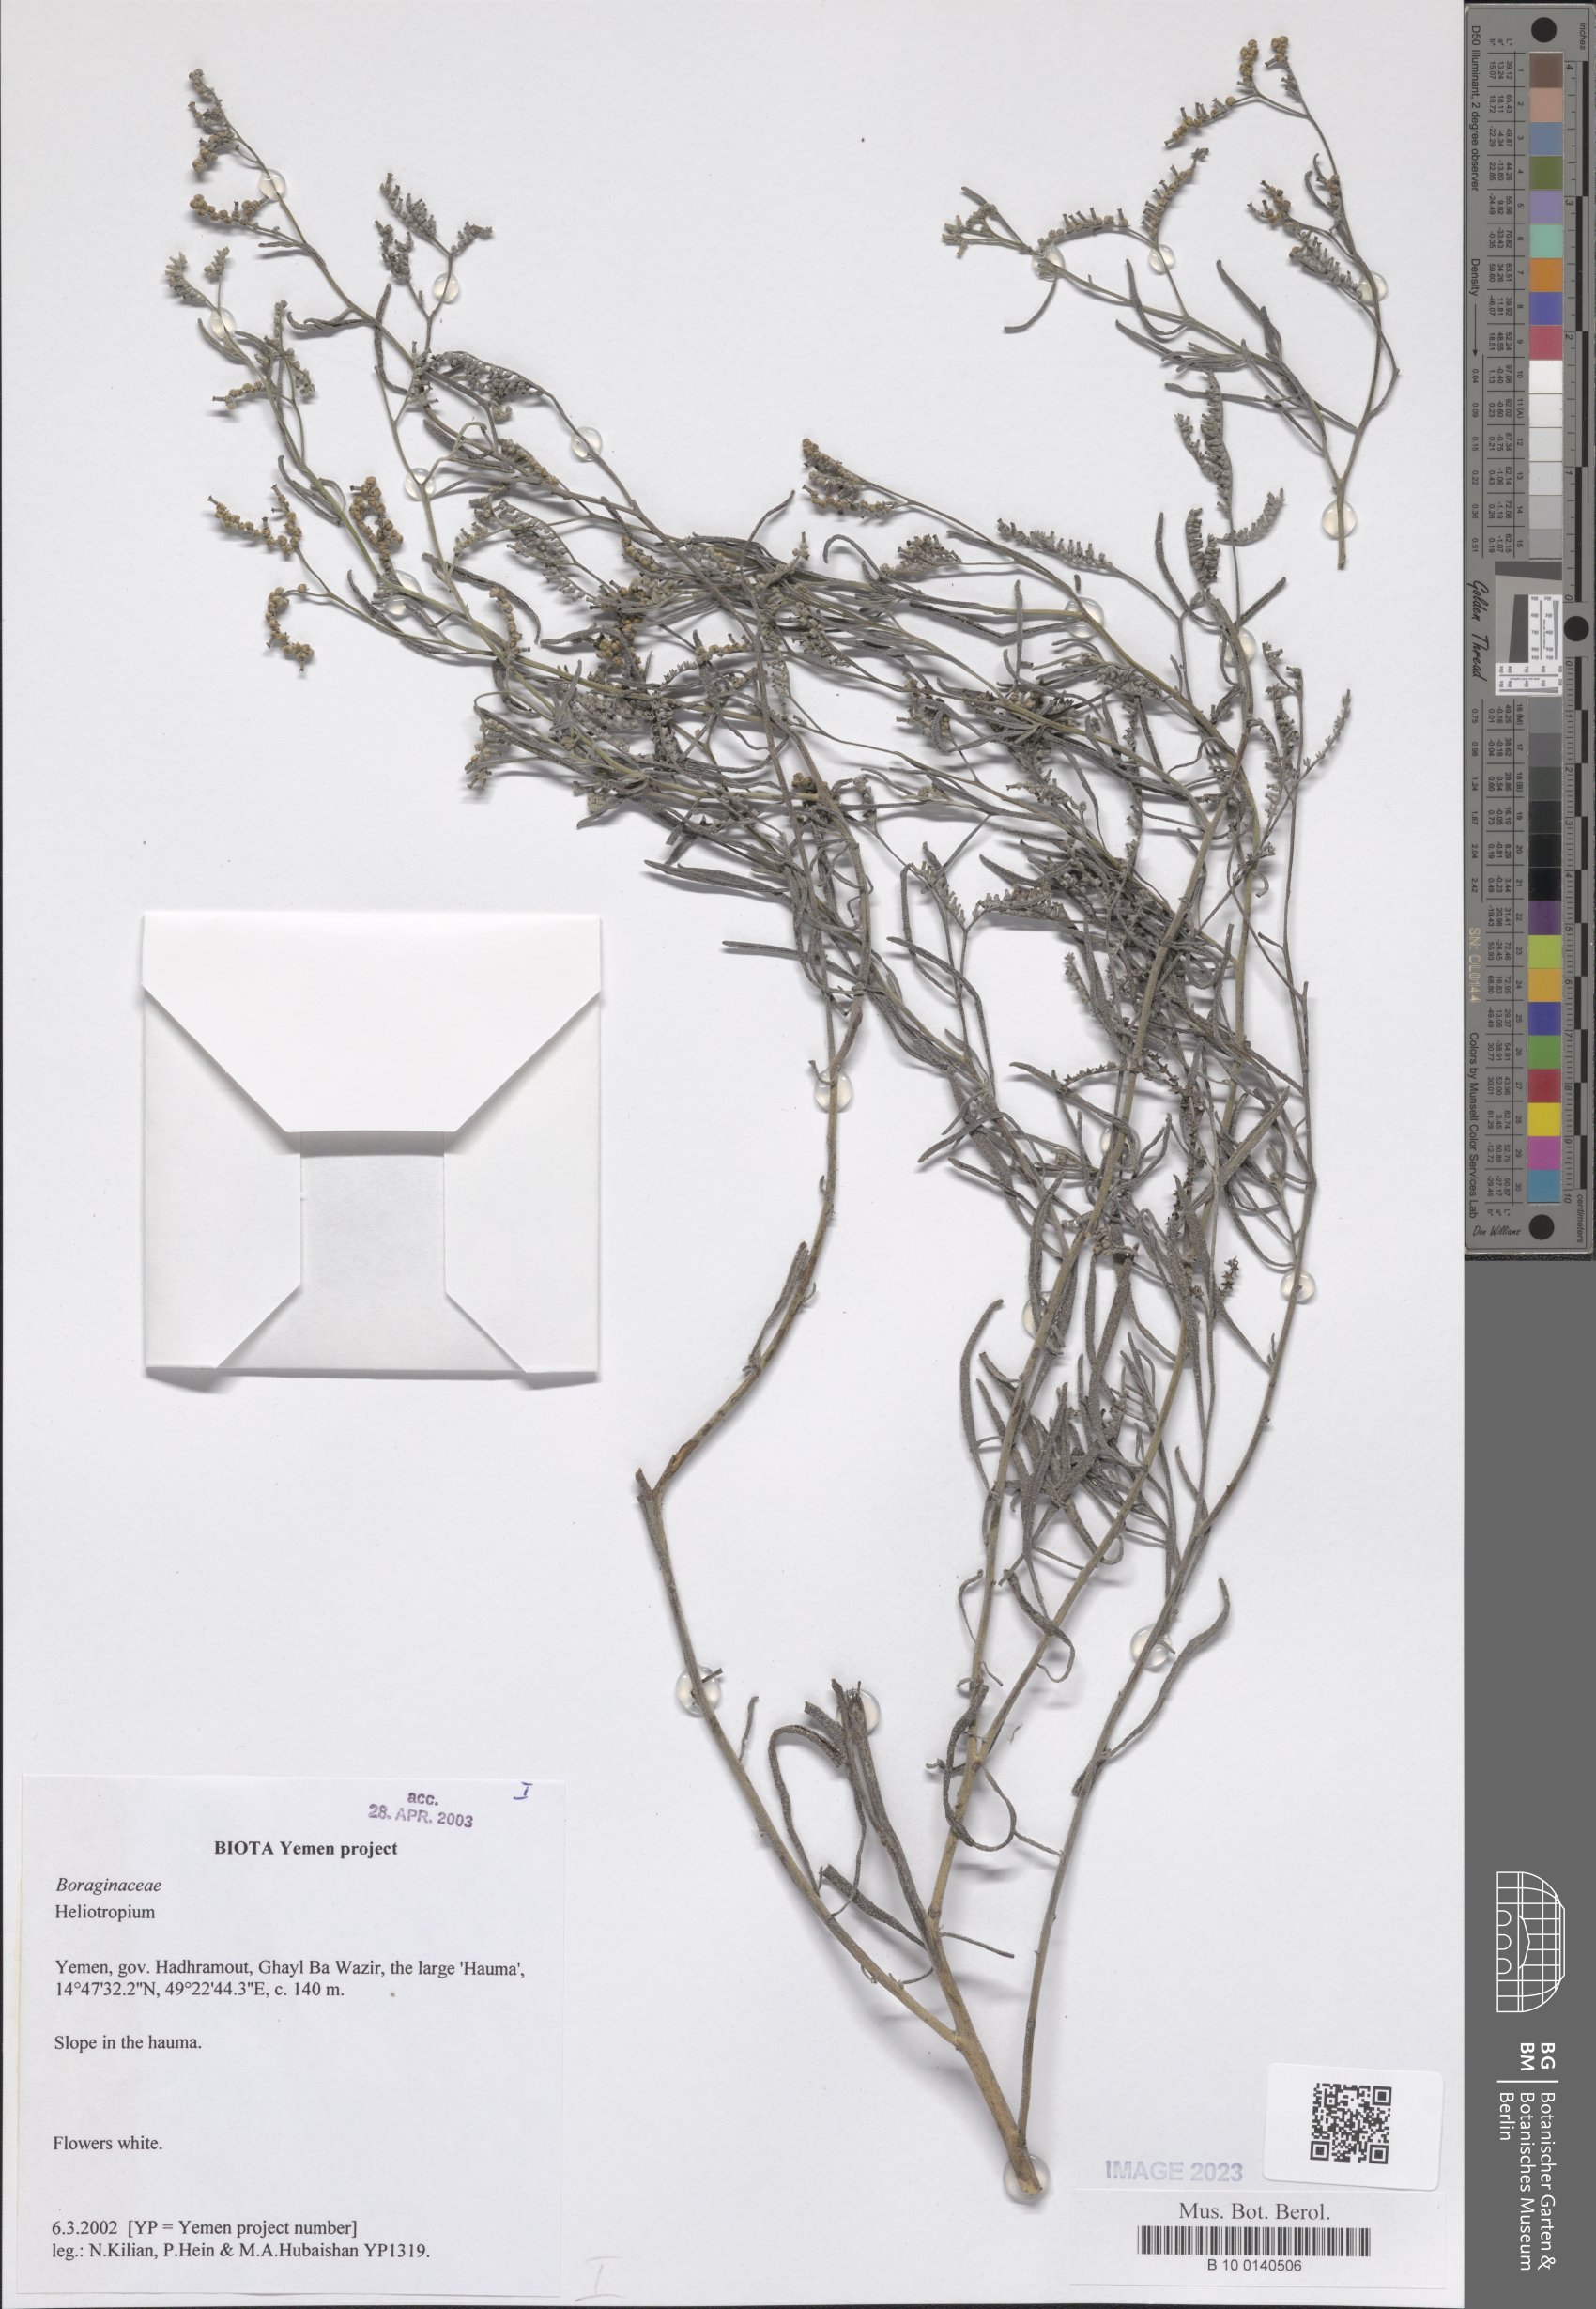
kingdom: Plantae
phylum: Tracheophyta
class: Magnoliopsida
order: Boraginales
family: Heliotropiaceae
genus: Heliotropium
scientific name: Heliotropium
